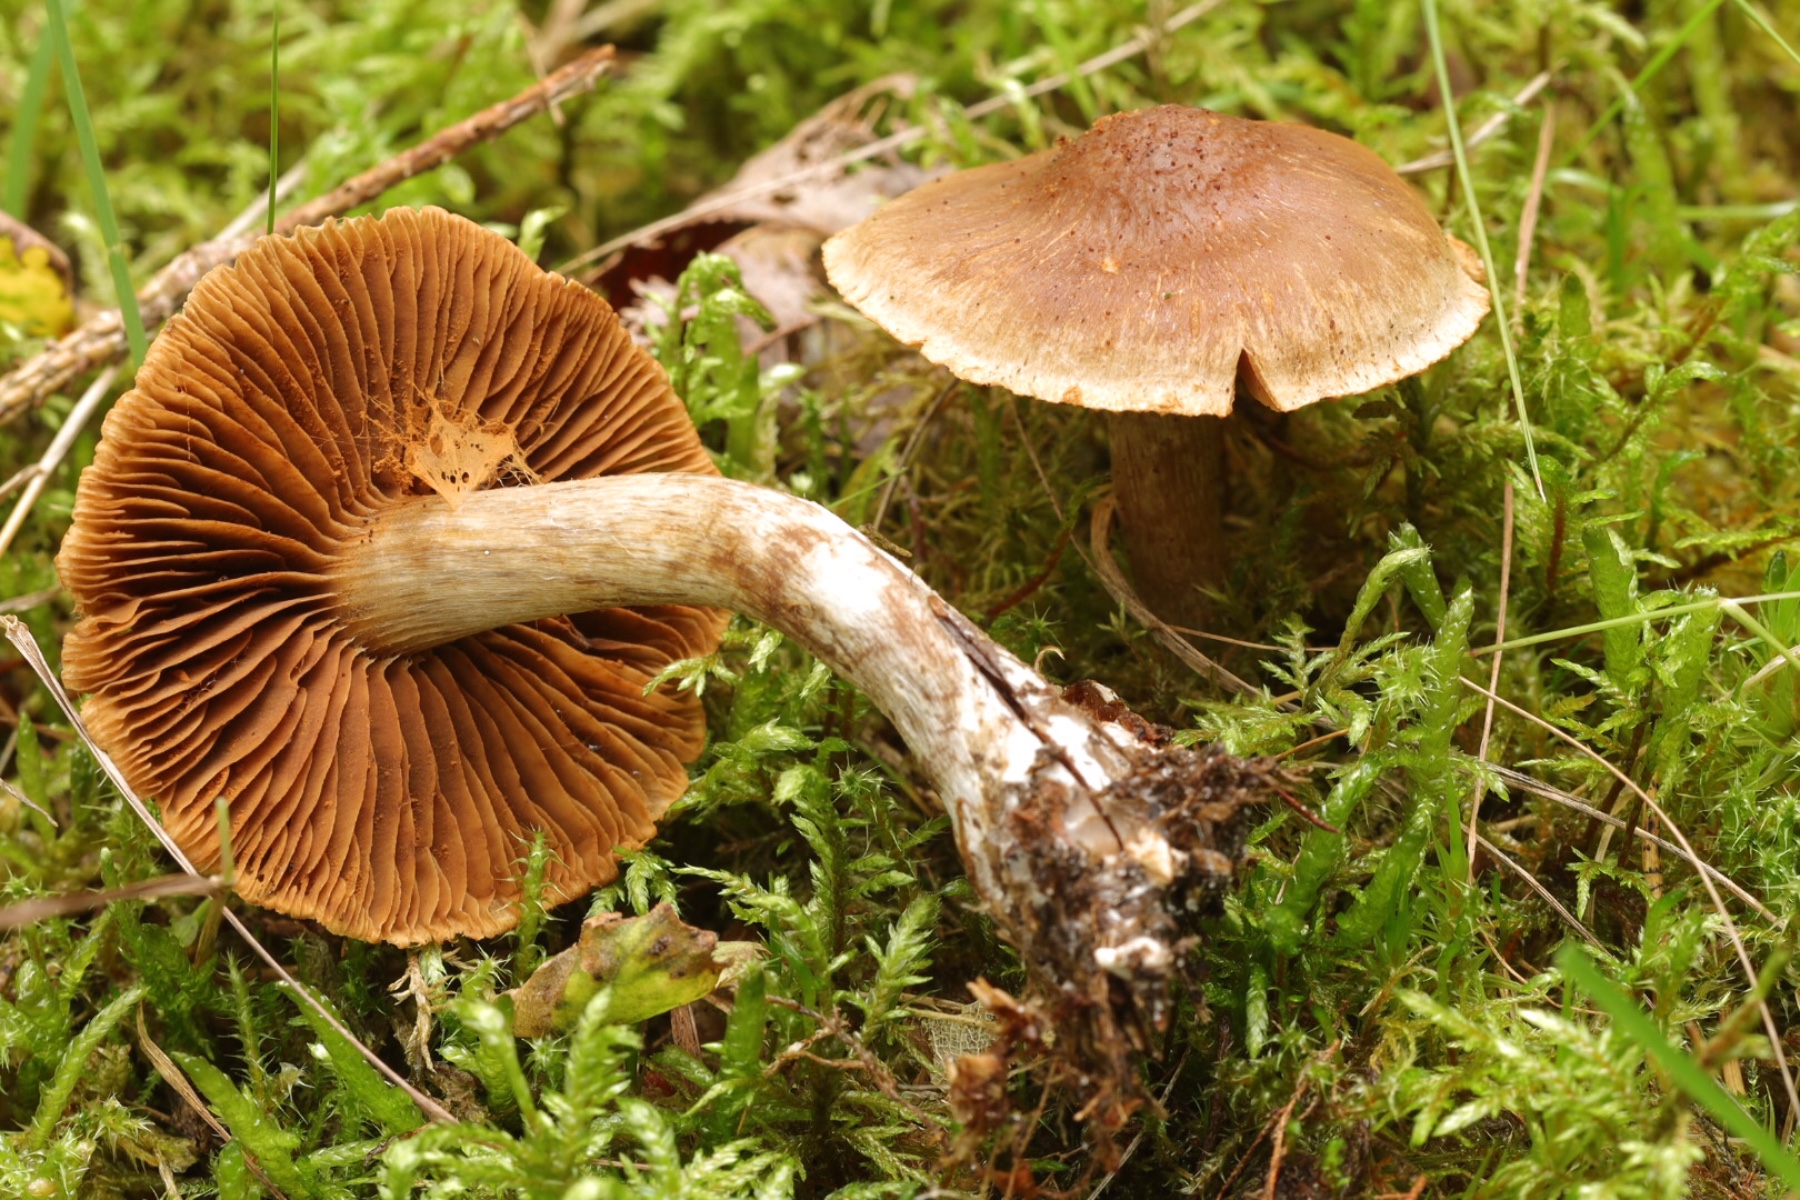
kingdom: Fungi
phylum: Basidiomycota
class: Agaricomycetes
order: Agaricales
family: Cortinariaceae
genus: Cortinarius
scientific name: Cortinarius
